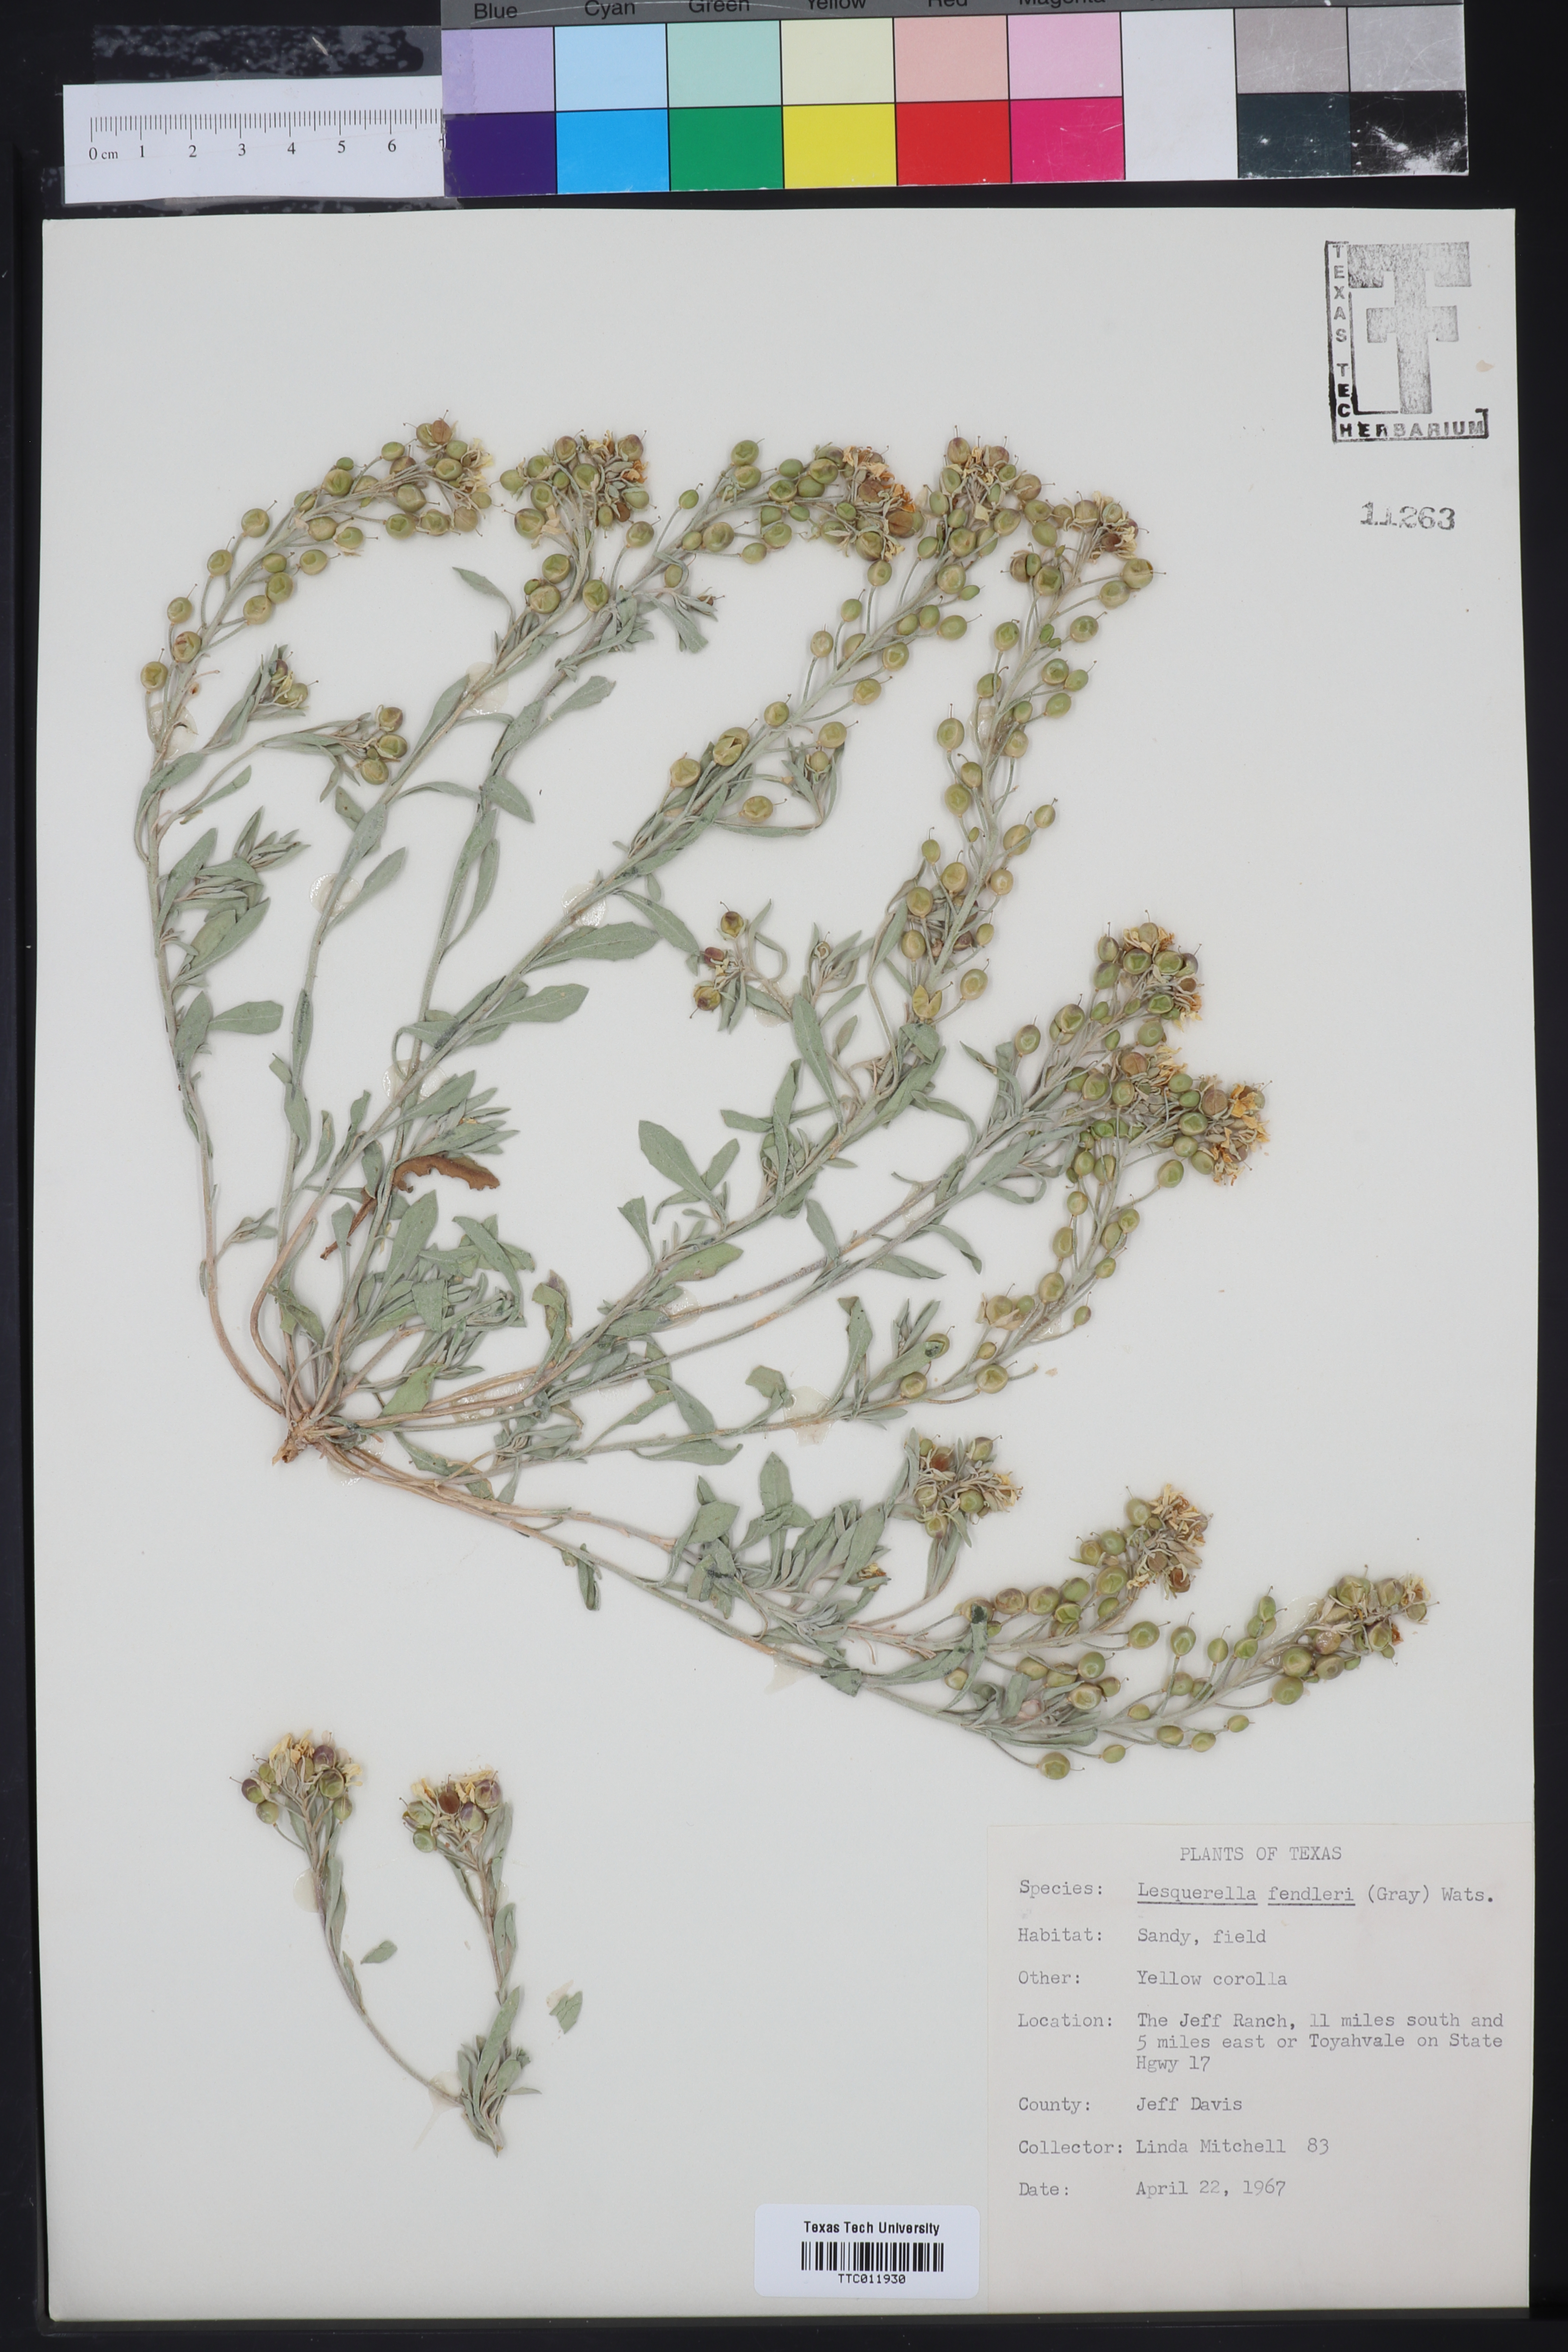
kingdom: Plantae
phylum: Tracheophyta
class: Magnoliopsida
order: Brassicales
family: Brassicaceae
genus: Physaria
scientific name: Physaria fendleri
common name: Fendler's bladderpod
